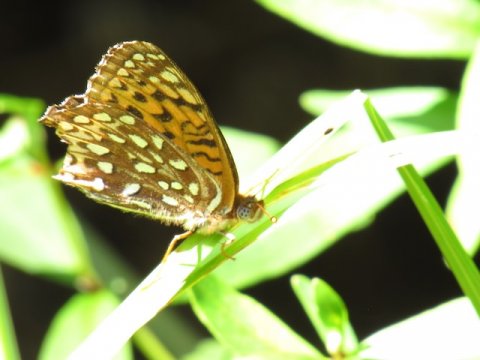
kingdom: Animalia
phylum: Arthropoda
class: Insecta
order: Lepidoptera
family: Nymphalidae
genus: Speyeria
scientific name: Speyeria atlantis
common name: Atlantis Fritillary
